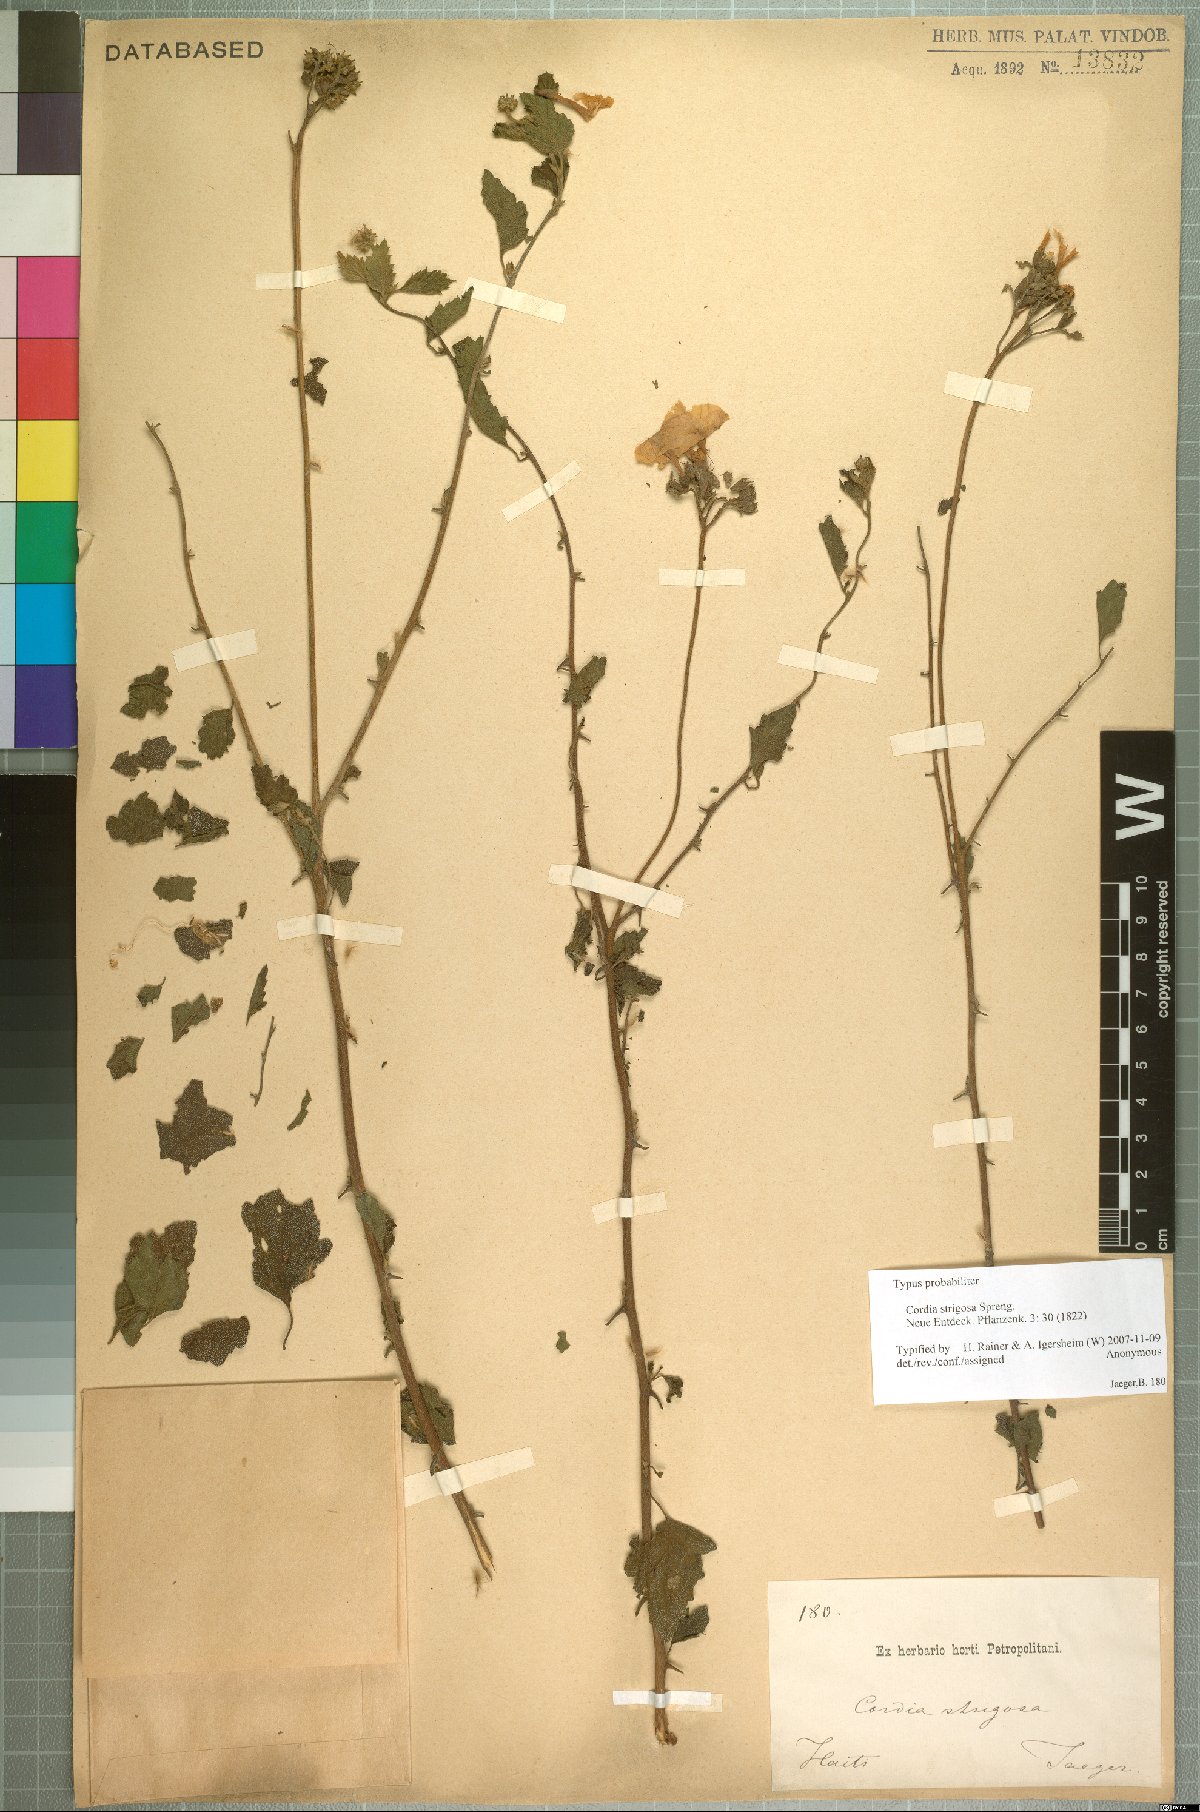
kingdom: Plantae
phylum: Tracheophyta
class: Magnoliopsida
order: Boraginales
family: Cordiaceae
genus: Varronia
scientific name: Varronia serrata
